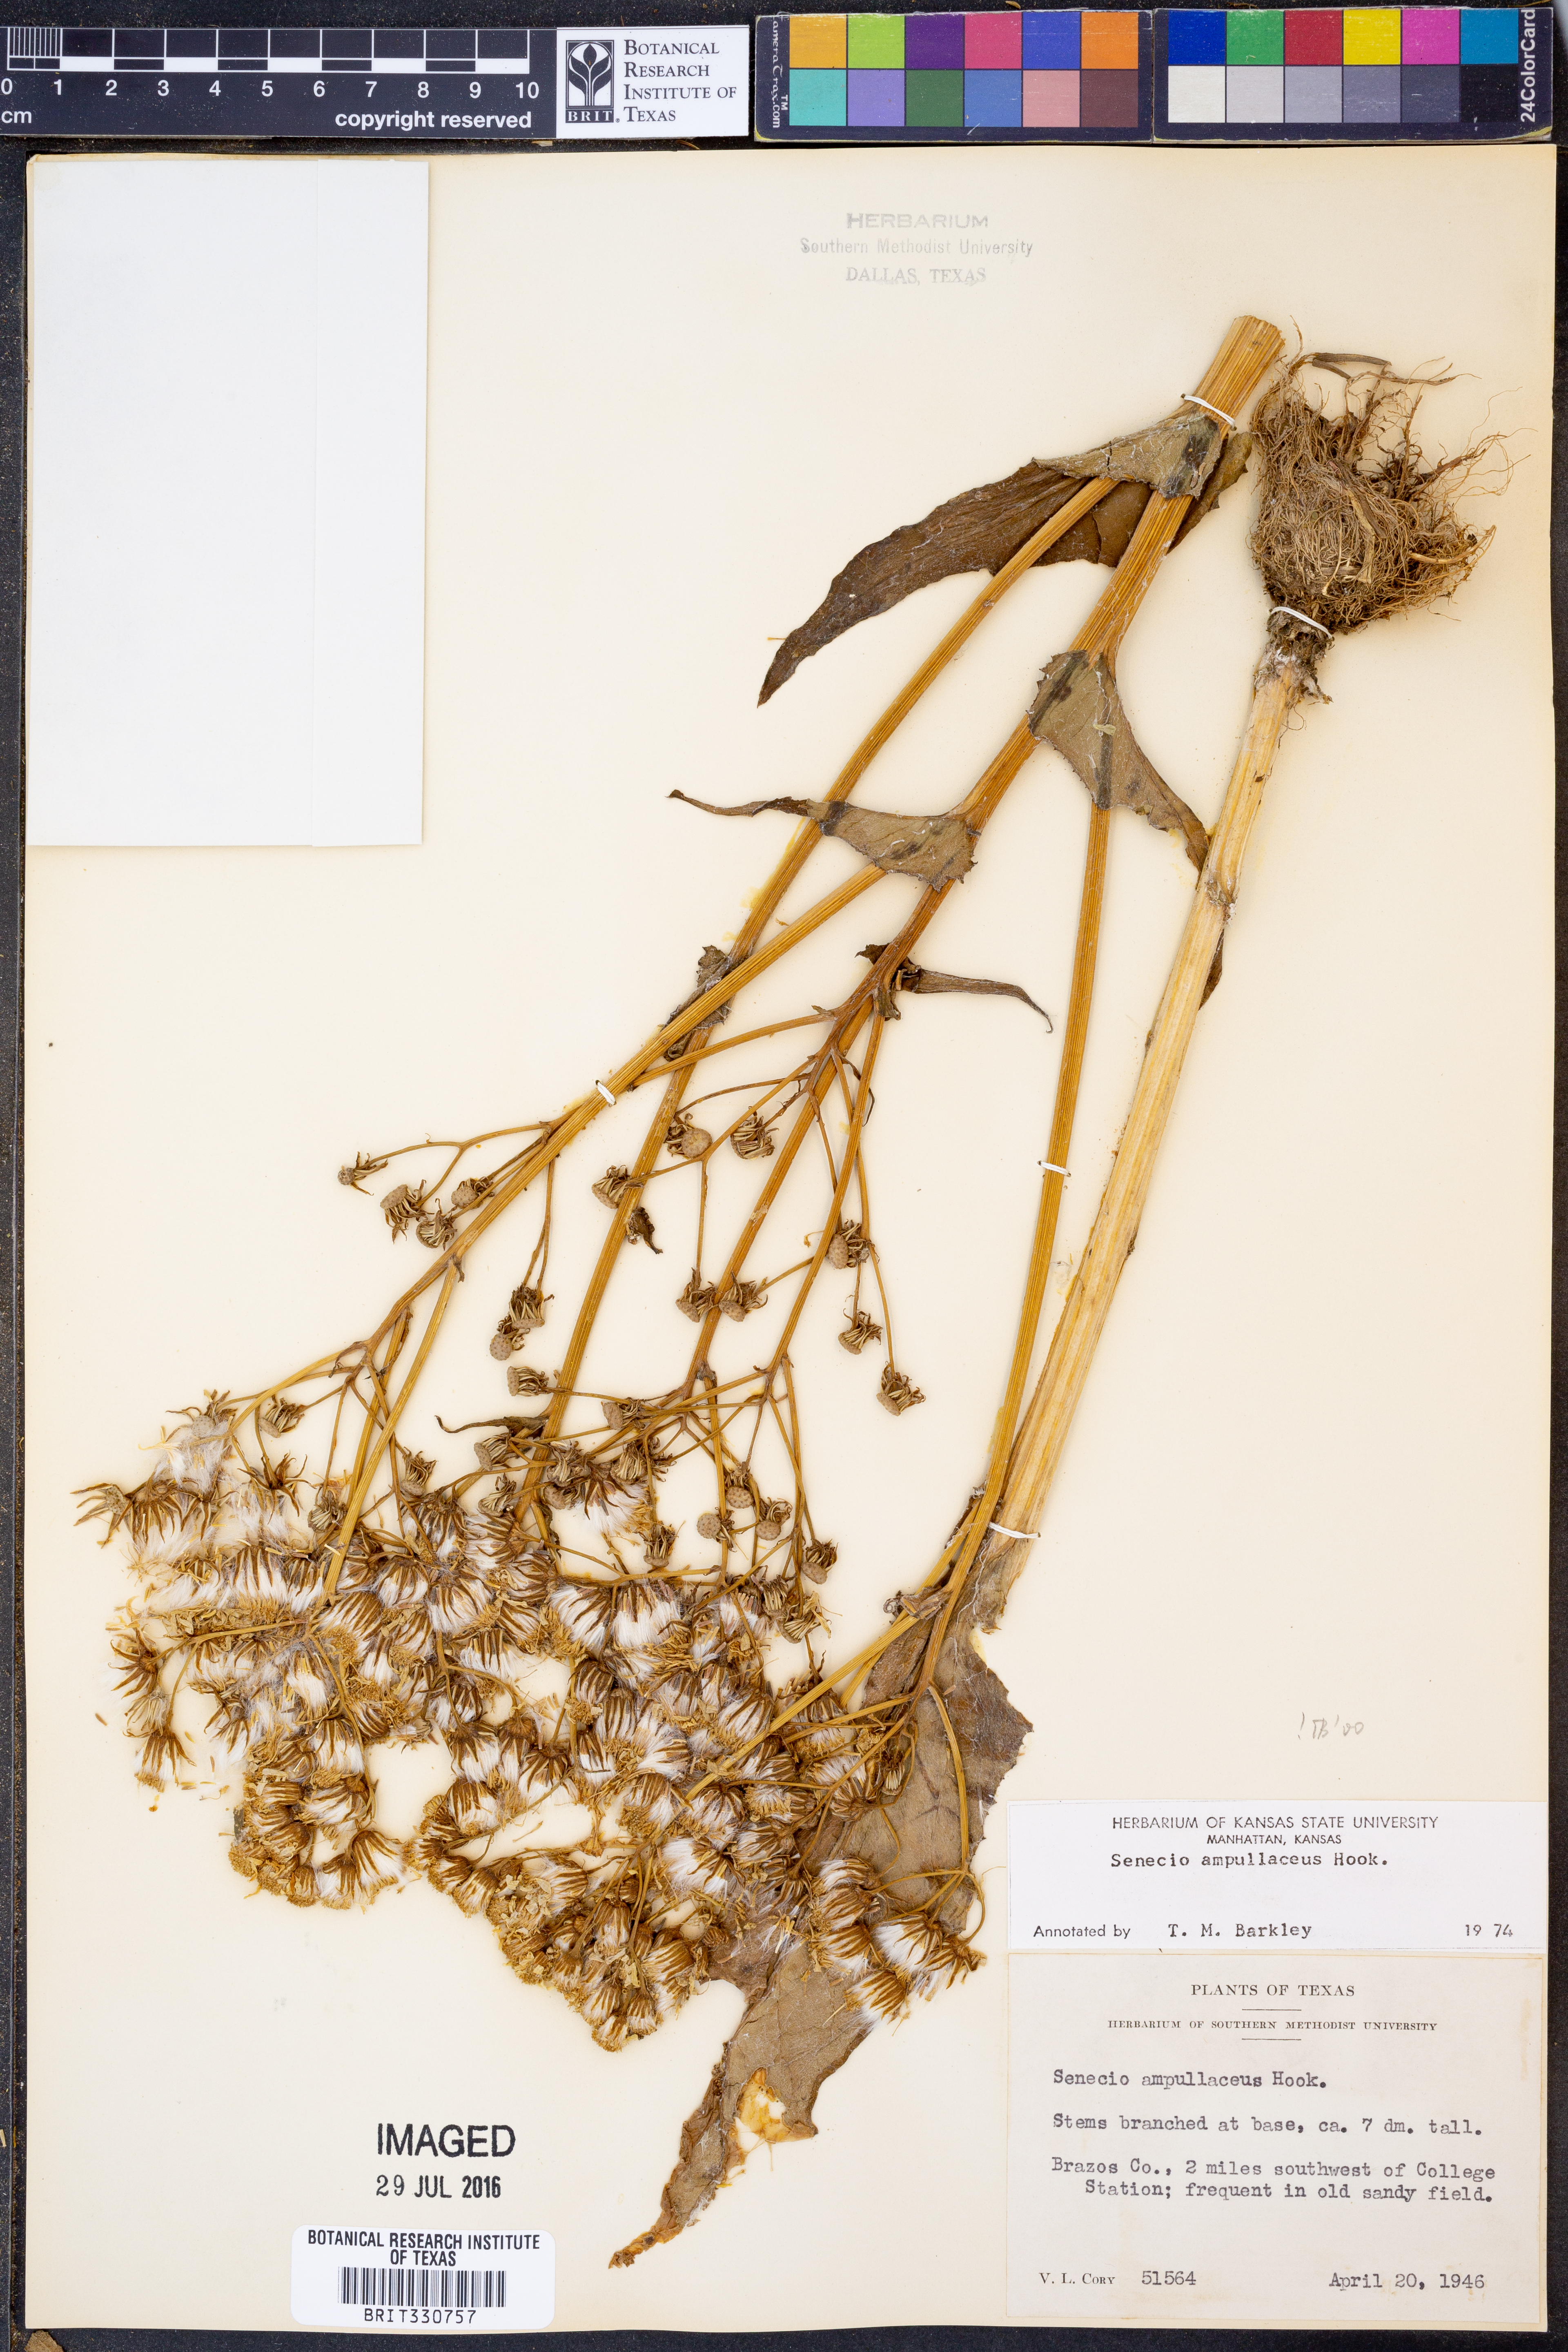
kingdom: Plantae
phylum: Tracheophyta
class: Magnoliopsida
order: Asterales
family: Asteraceae
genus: Senecio
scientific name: Senecio ampullaceus
